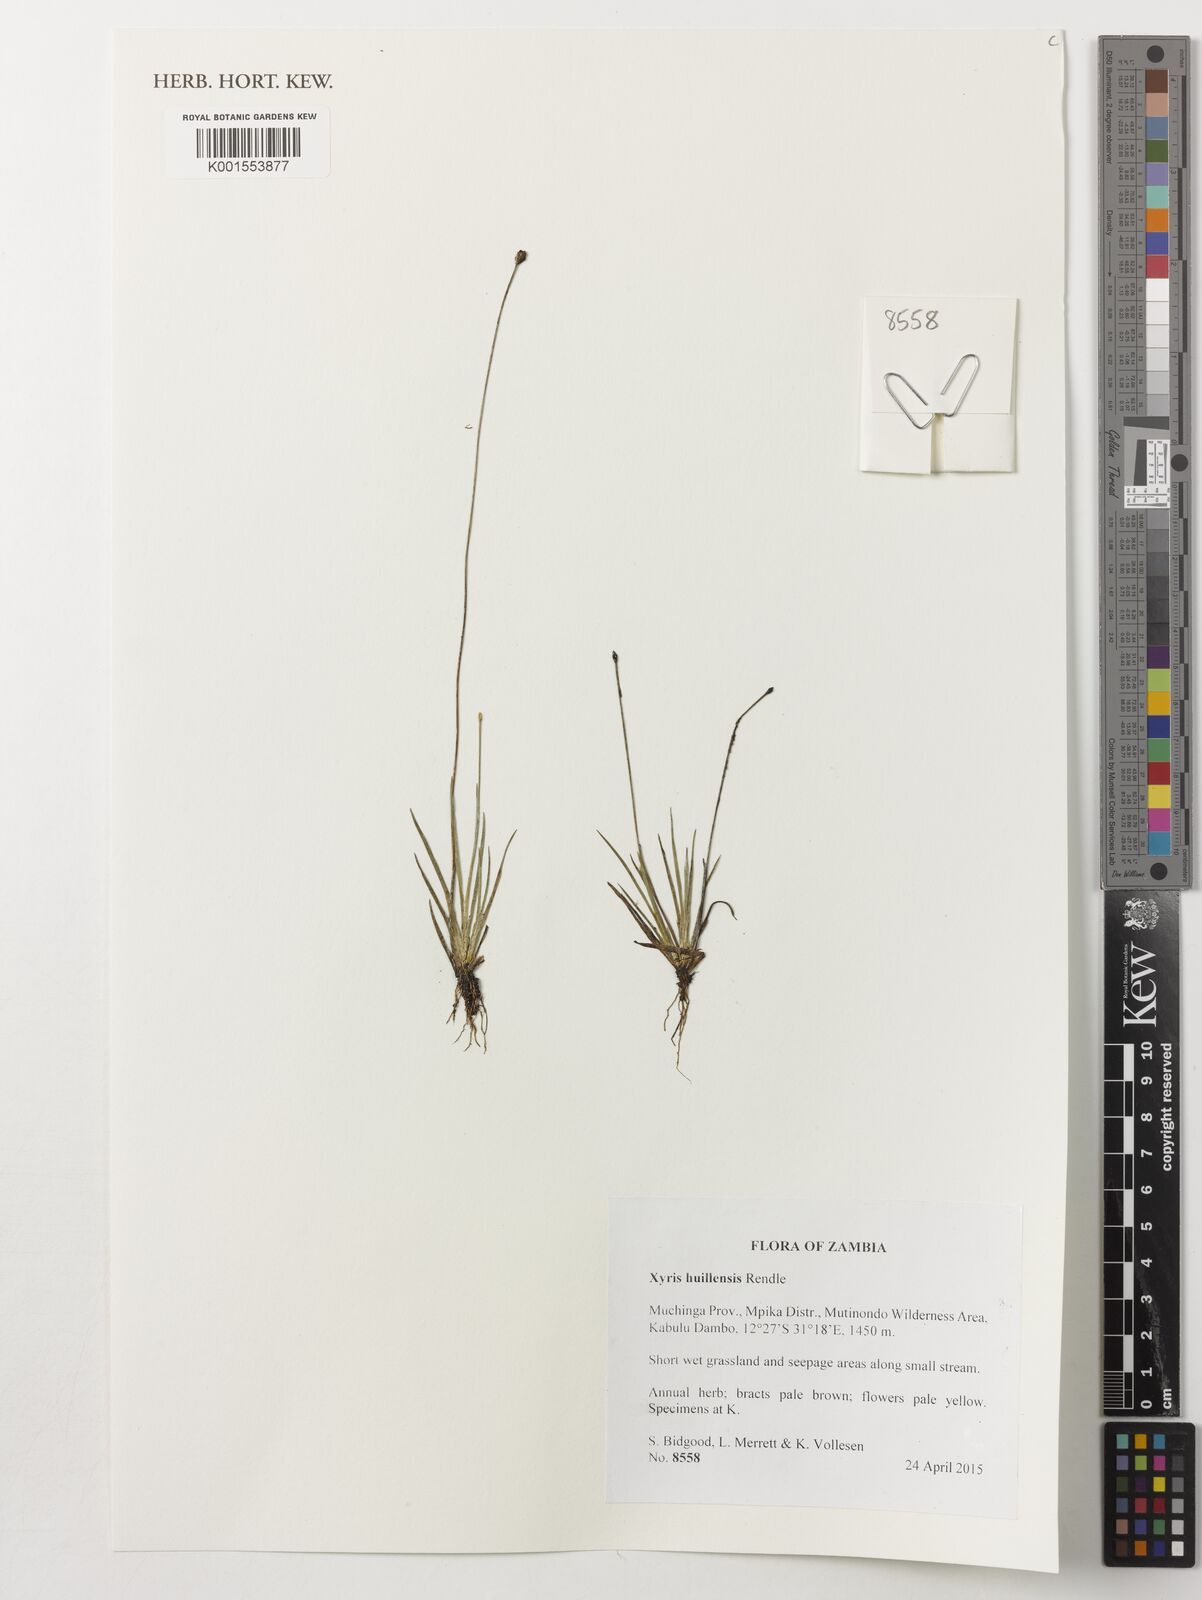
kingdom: Plantae
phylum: Tracheophyta
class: Liliopsida
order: Poales
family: Xyridaceae
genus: Xyris
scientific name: Xyris huillensis
